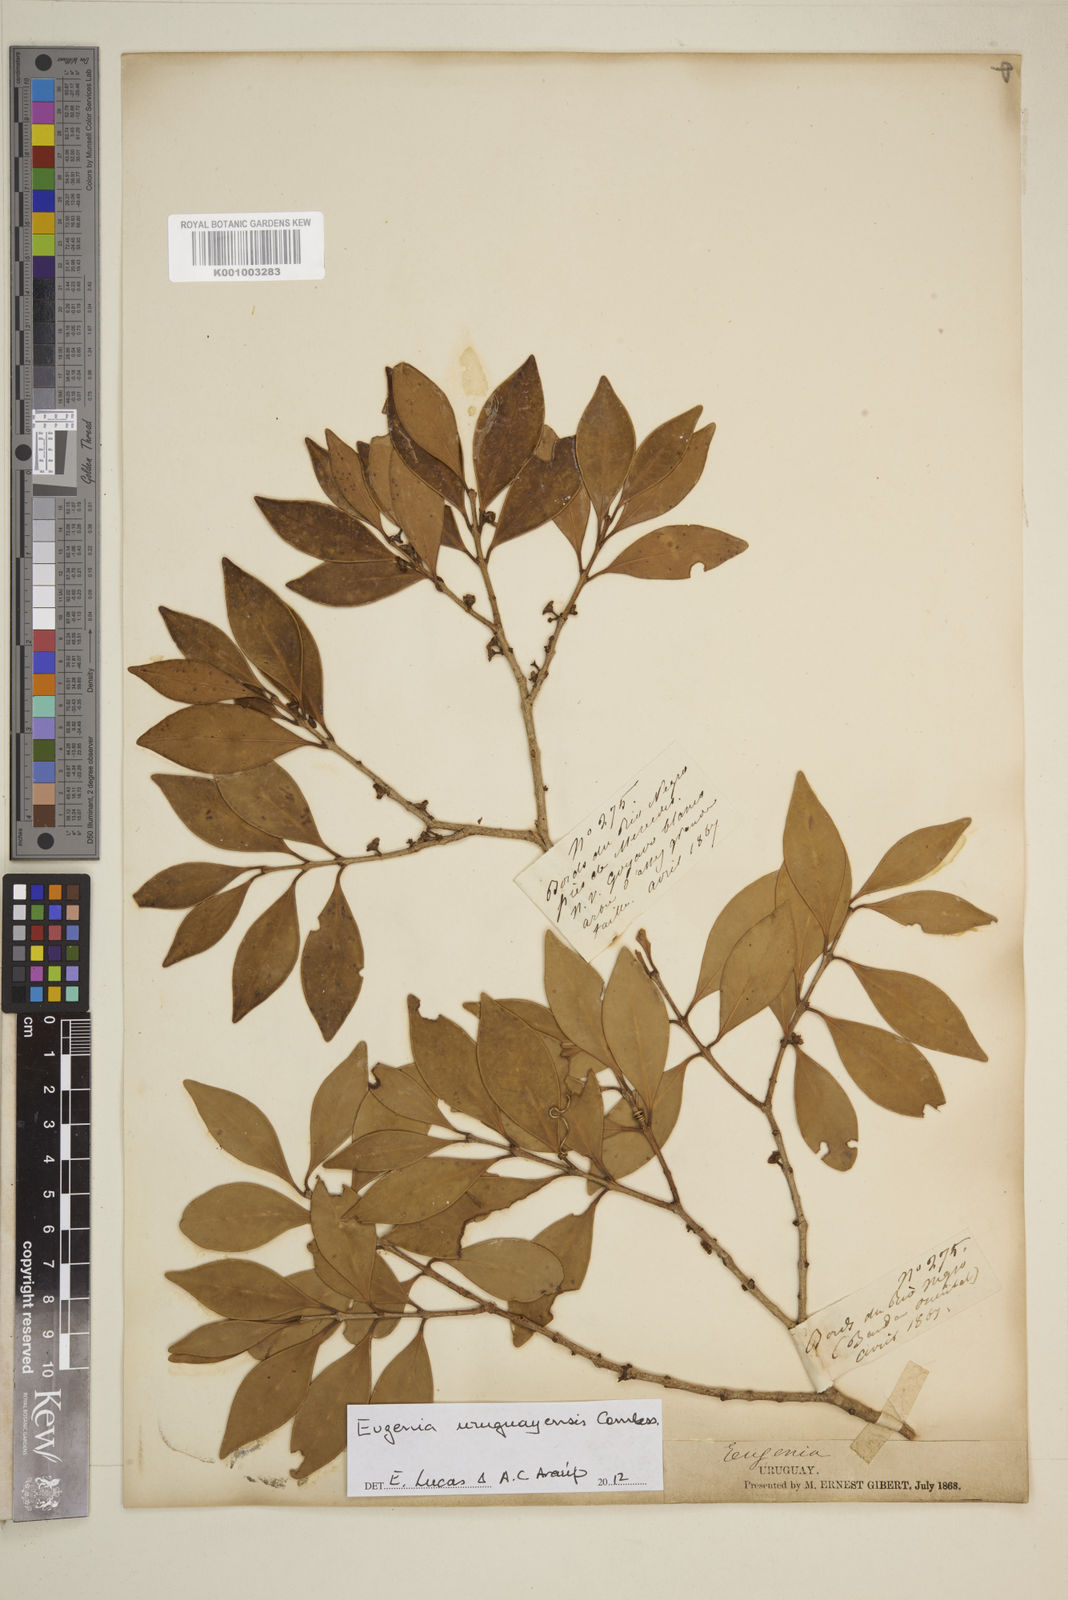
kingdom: Plantae
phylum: Tracheophyta
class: Magnoliopsida
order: Myrtales
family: Myrtaceae
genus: Eugenia
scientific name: Eugenia
